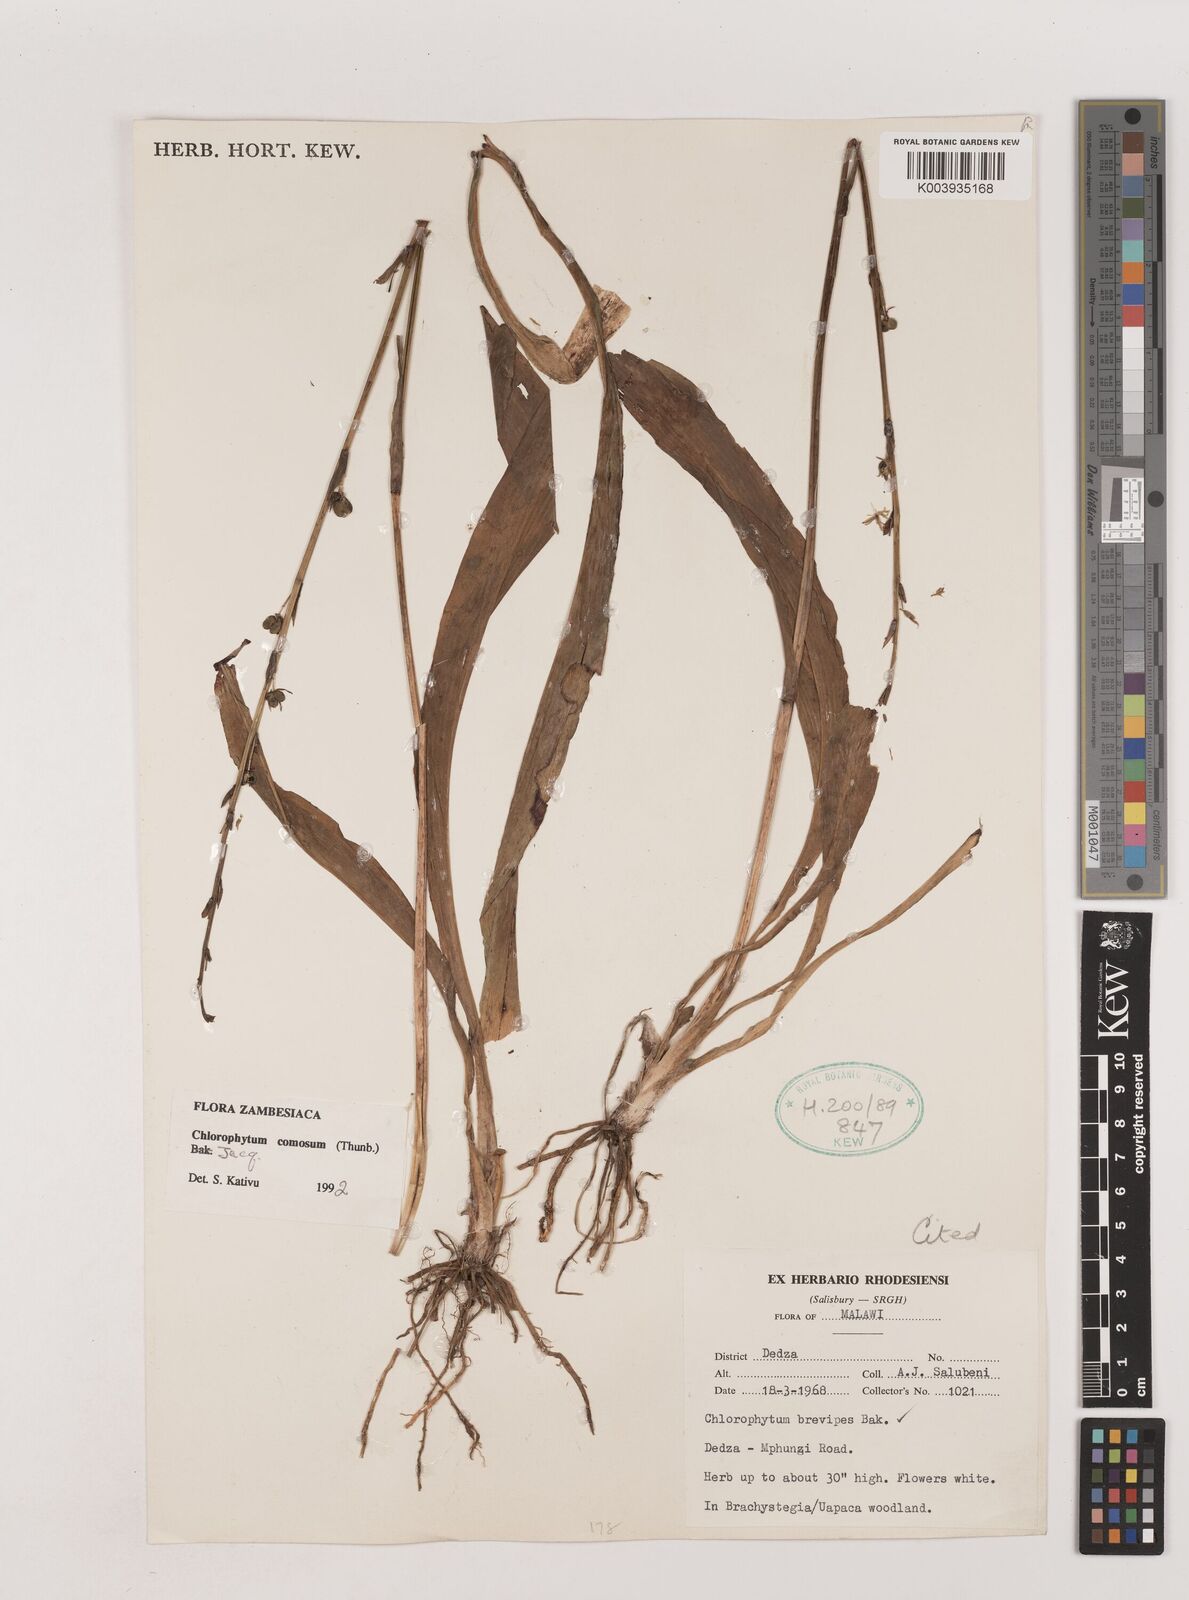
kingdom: Plantae
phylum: Tracheophyta
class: Liliopsida
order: Asparagales
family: Asparagaceae
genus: Chlorophytum
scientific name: Chlorophytum comosum
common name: Spider plant
